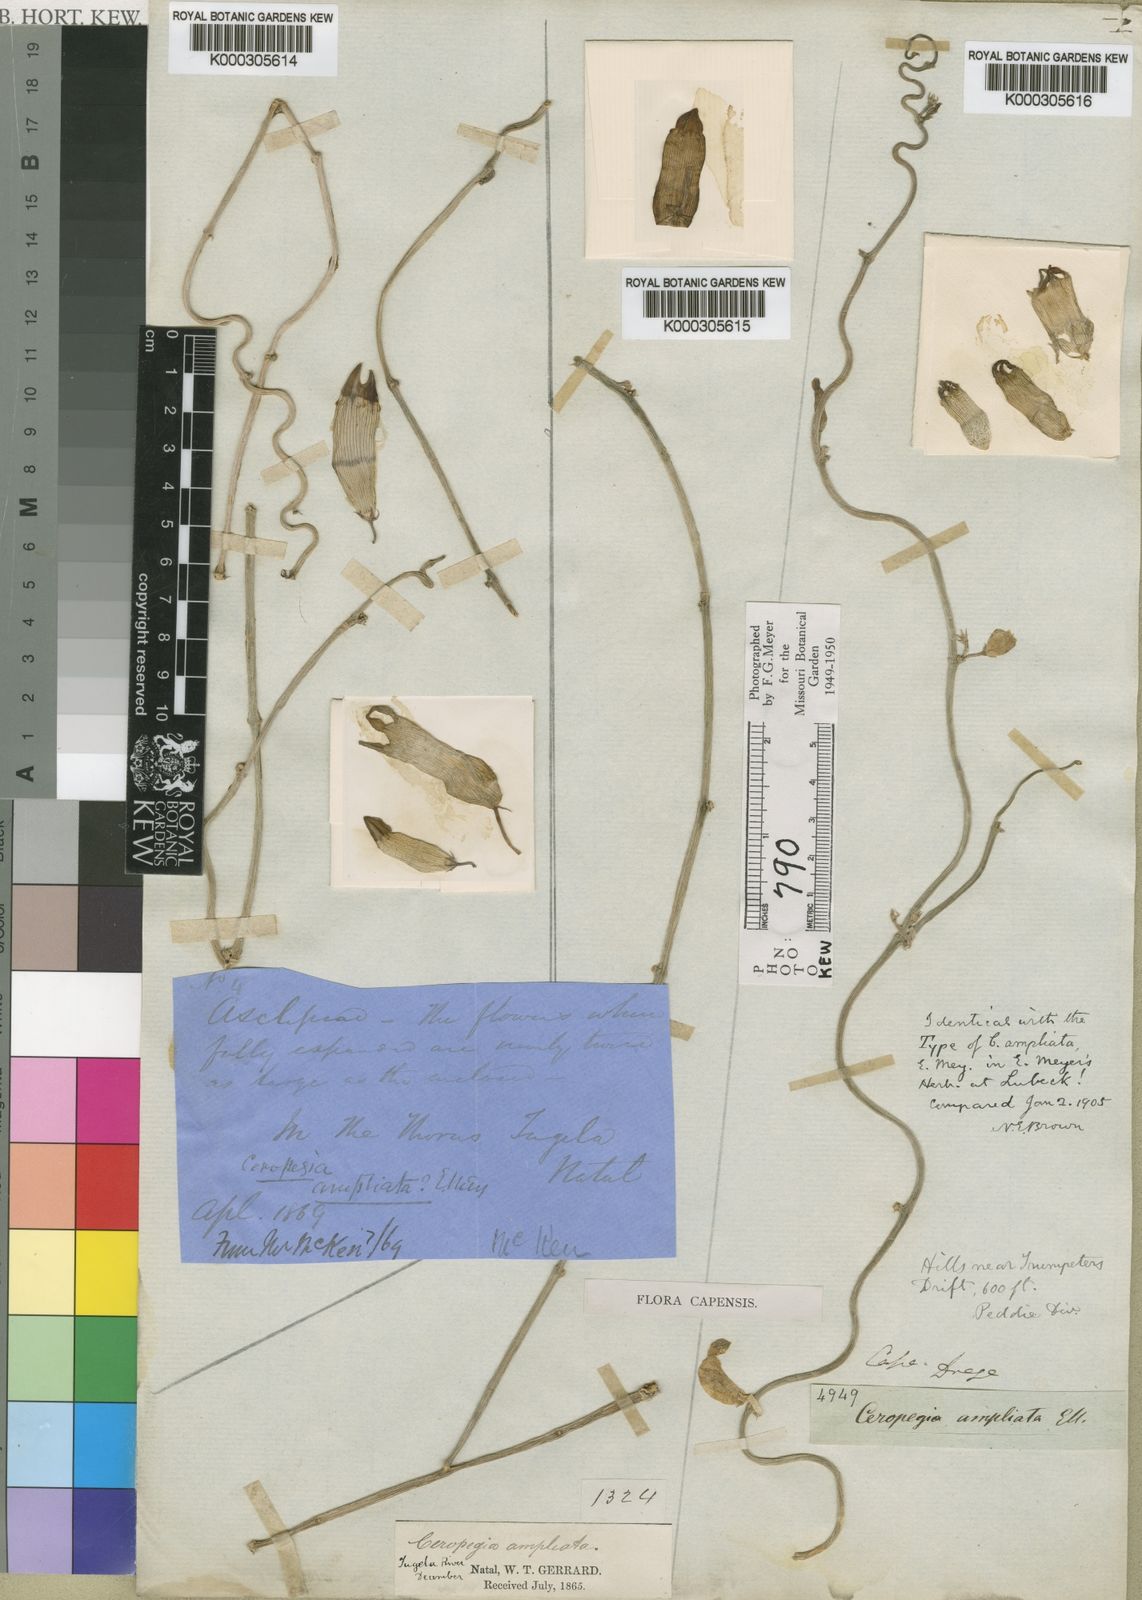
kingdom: Plantae
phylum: Tracheophyta
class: Magnoliopsida
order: Gentianales
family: Apocynaceae
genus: Ceropegia
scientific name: Ceropegia ampliata
